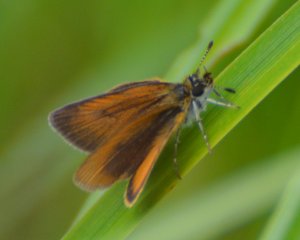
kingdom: Animalia
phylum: Arthropoda
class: Insecta
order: Lepidoptera
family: Hesperiidae
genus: Ancyloxypha
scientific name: Ancyloxypha numitor
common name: Least Skipper
